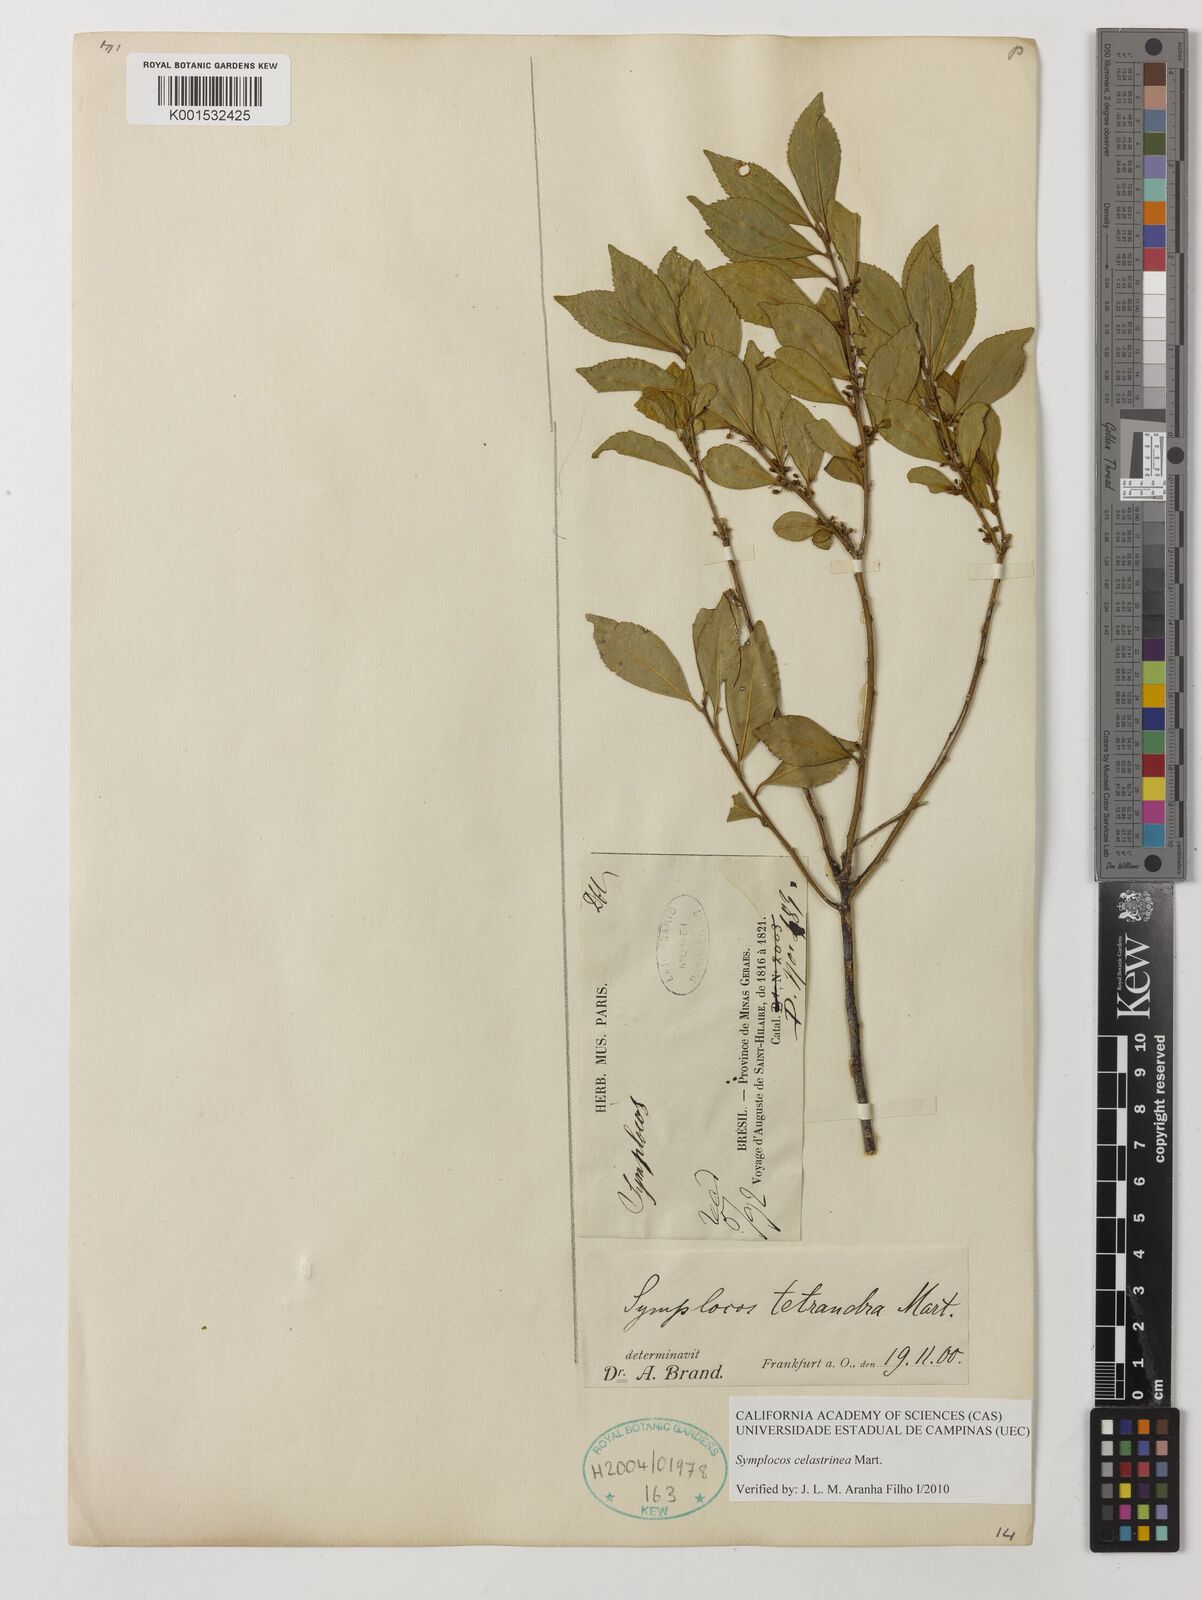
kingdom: Plantae
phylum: Tracheophyta
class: Magnoliopsida
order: Ericales
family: Symplocaceae
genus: Symplocos
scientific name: Symplocos celastrinea
